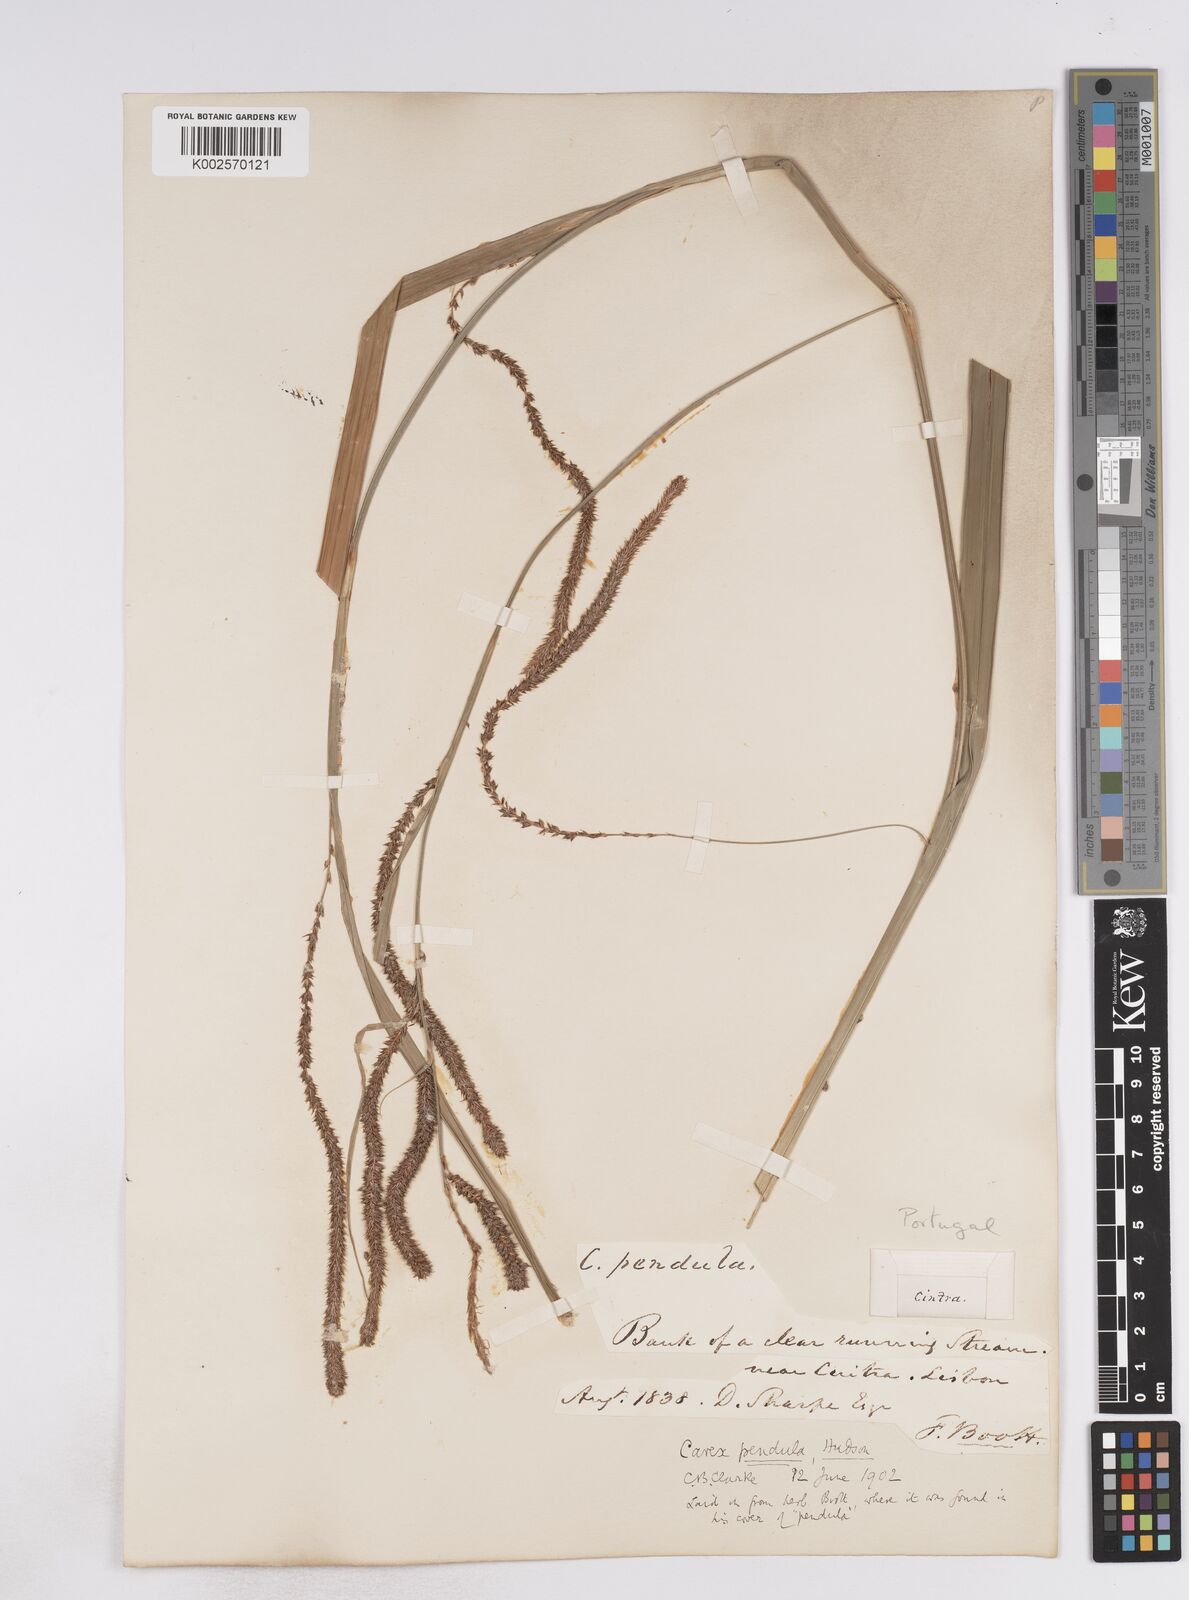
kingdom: Plantae
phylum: Tracheophyta
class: Liliopsida
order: Poales
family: Cyperaceae
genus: Carex
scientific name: Carex pendula
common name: Pendulous sedge
